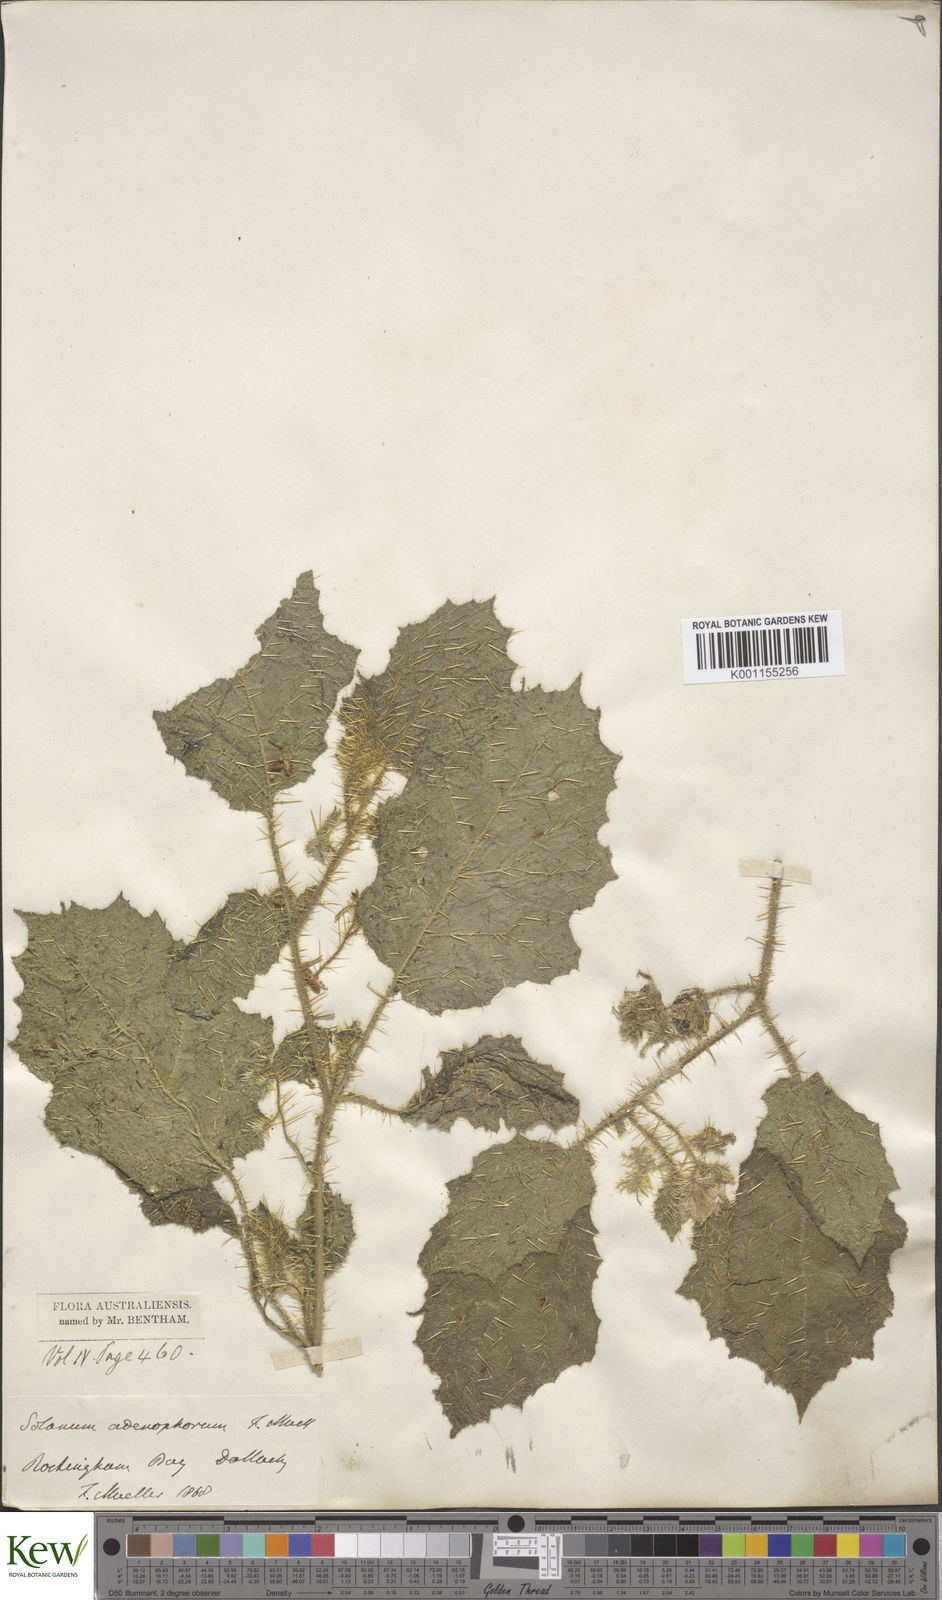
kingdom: Plantae
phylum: Tracheophyta
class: Magnoliopsida
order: Solanales
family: Solanaceae
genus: Solanum
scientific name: Solanum
